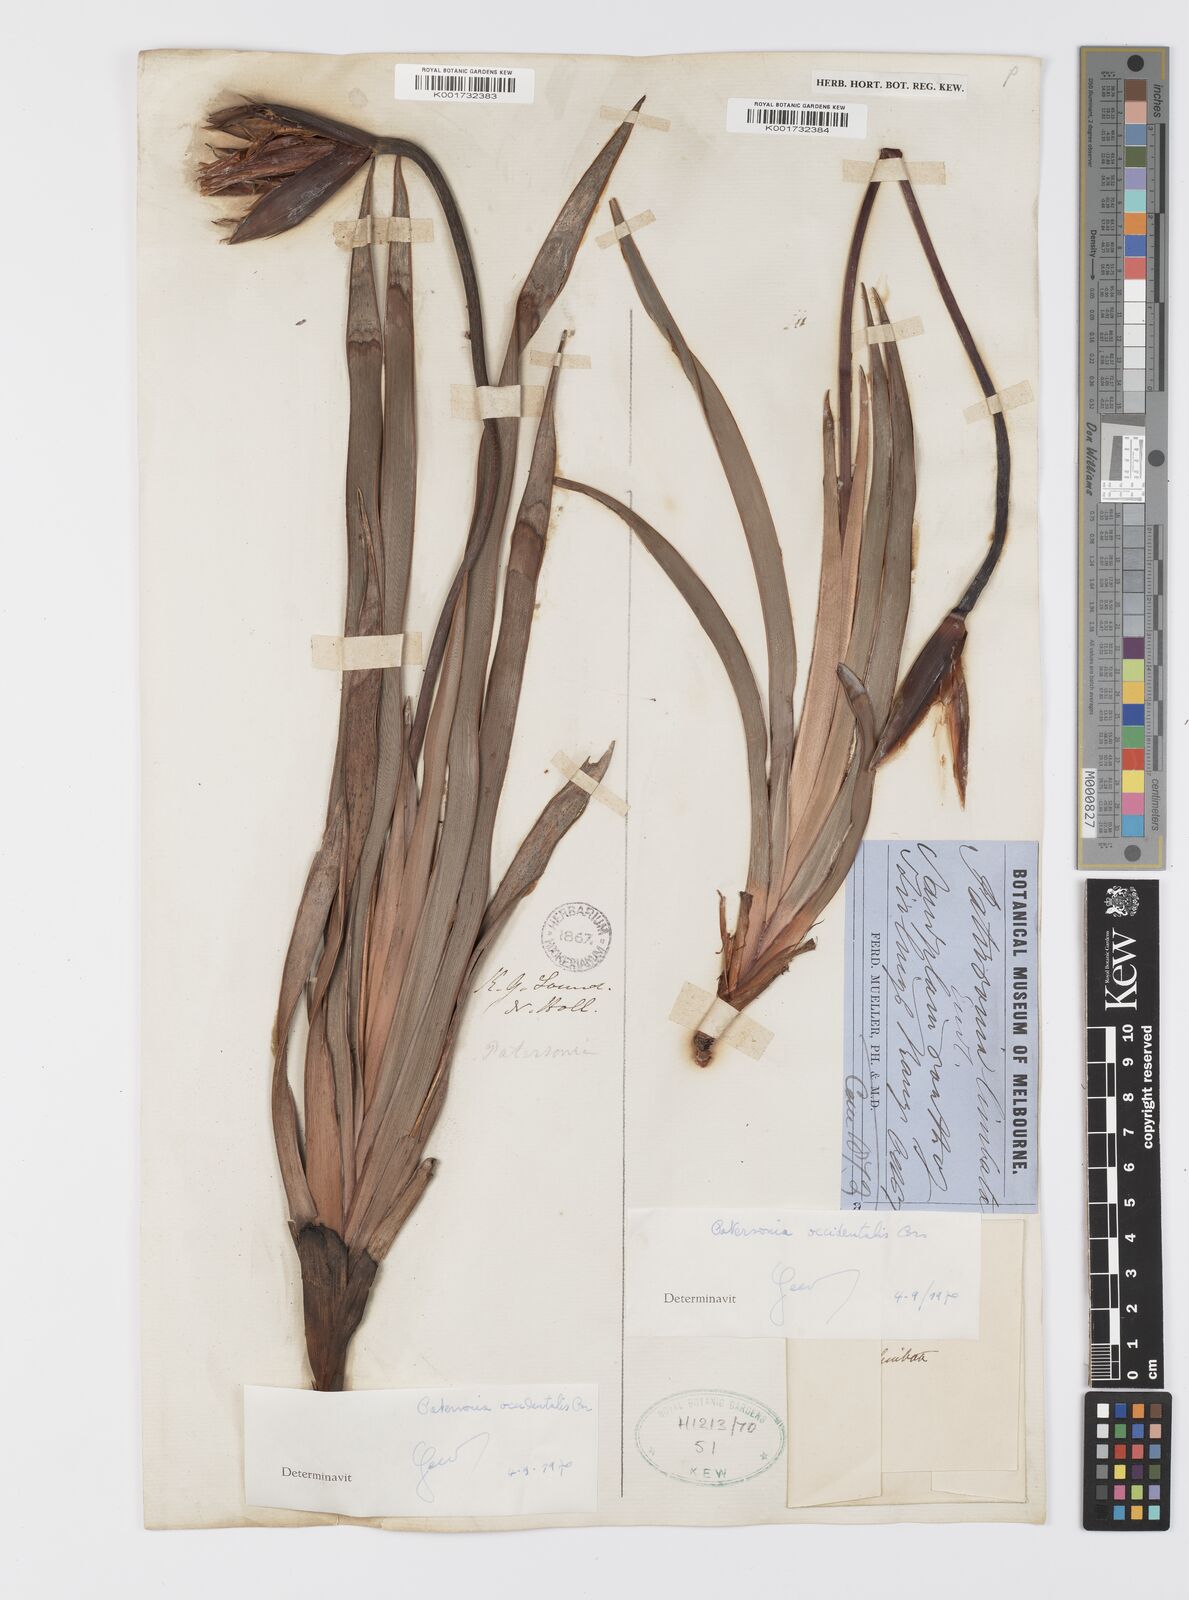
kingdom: Plantae
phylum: Tracheophyta
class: Liliopsida
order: Asparagales
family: Iridaceae
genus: Patersonia
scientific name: Patersonia occidentalis
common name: Long purple-flag
